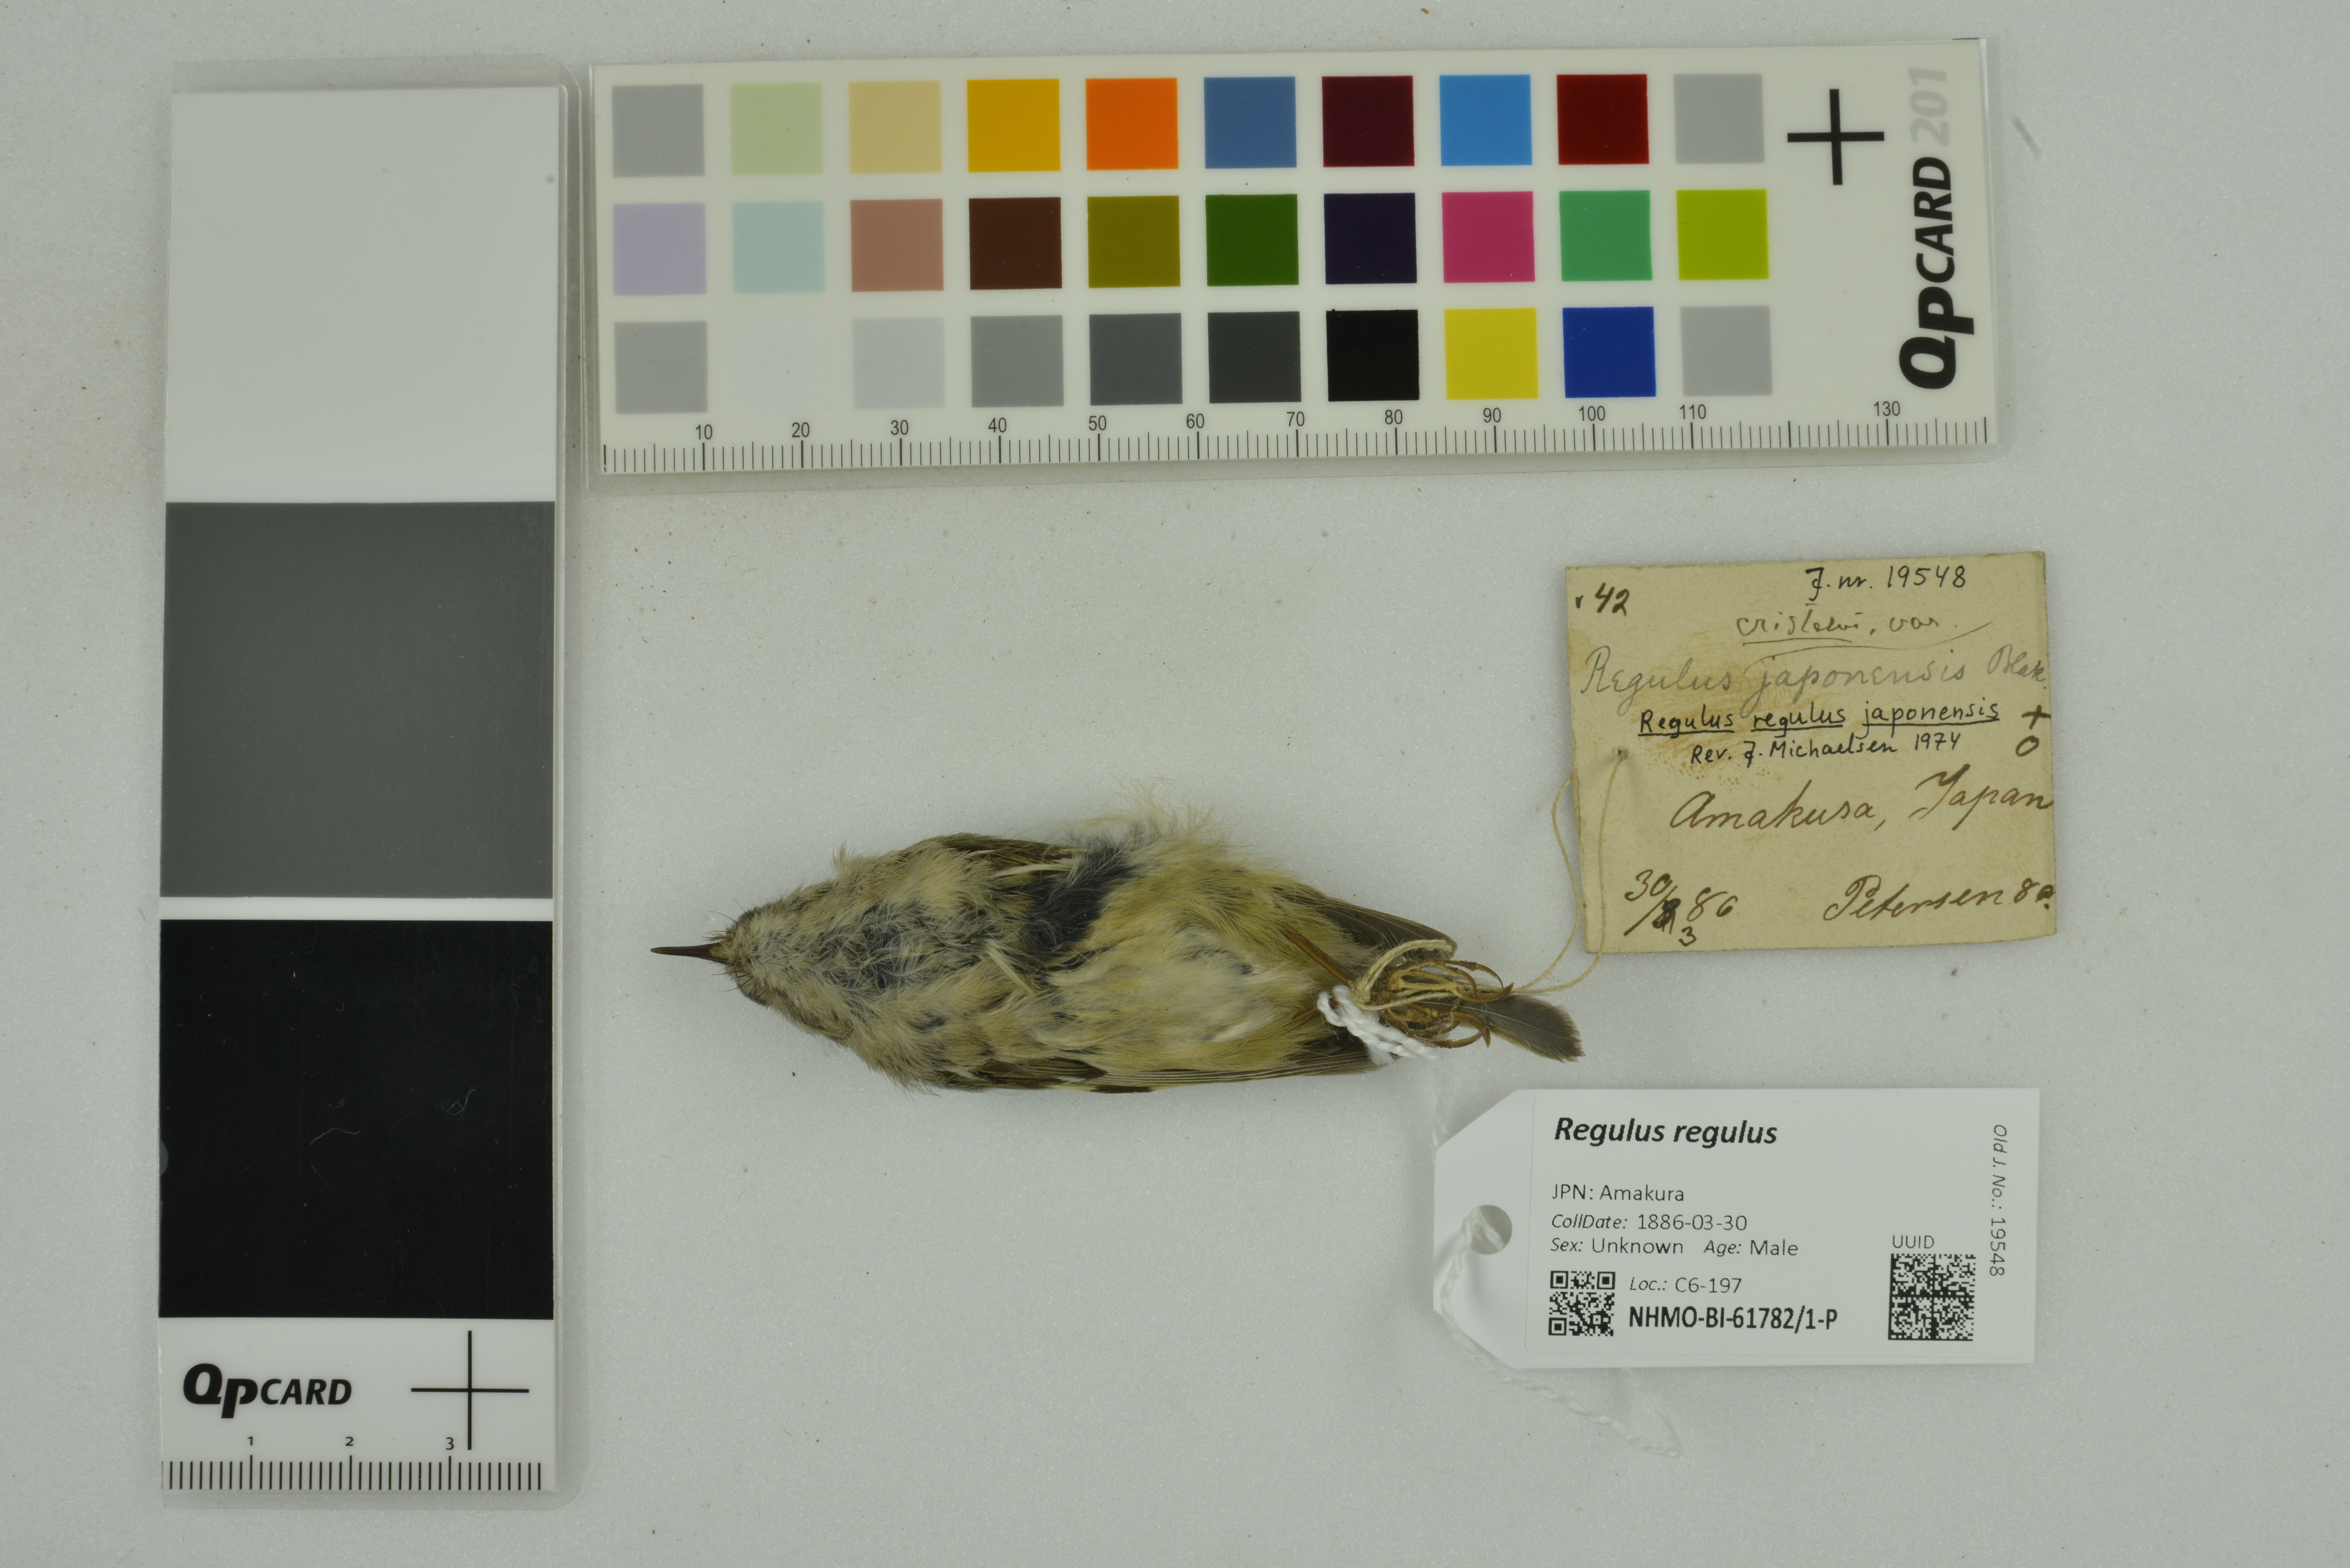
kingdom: Animalia
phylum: Chordata
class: Aves
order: Passeriformes
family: Regulidae
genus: Regulus
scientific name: Regulus regulus
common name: Goldcrest
